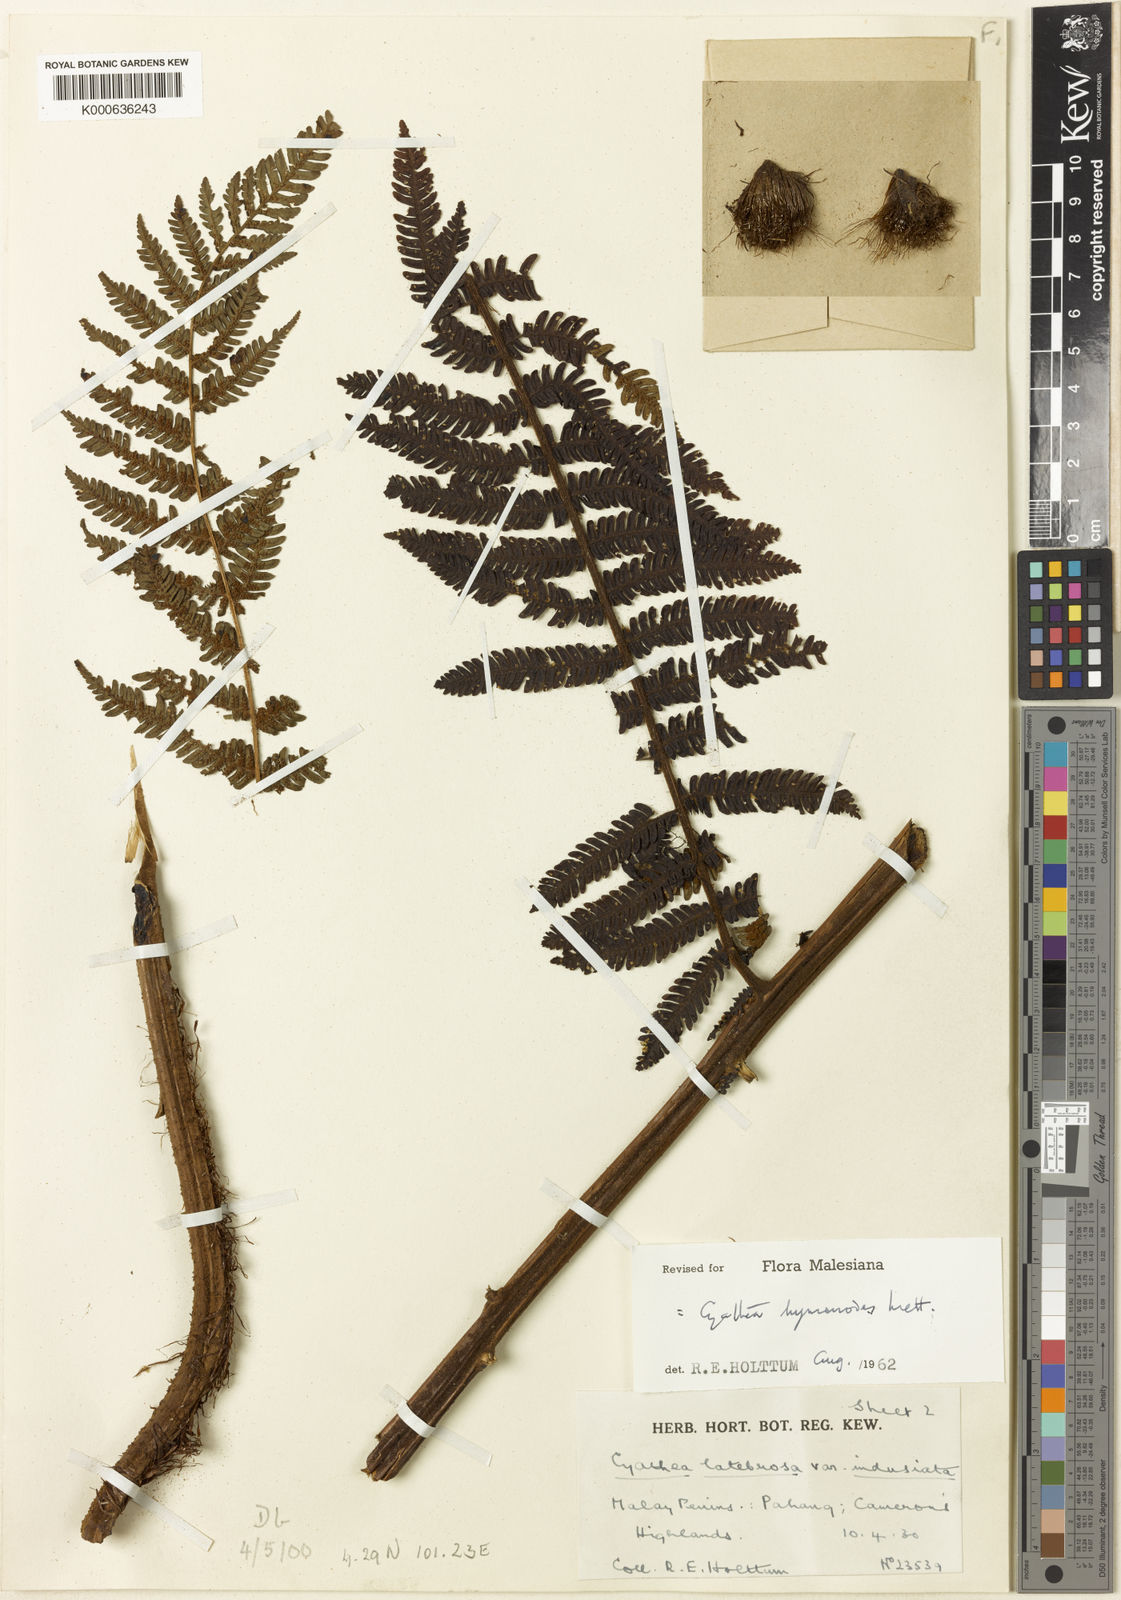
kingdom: Plantae
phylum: Tracheophyta
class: Polypodiopsida
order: Cyatheales
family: Cyatheaceae
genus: Alsophila
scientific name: Alsophila hymenodes
